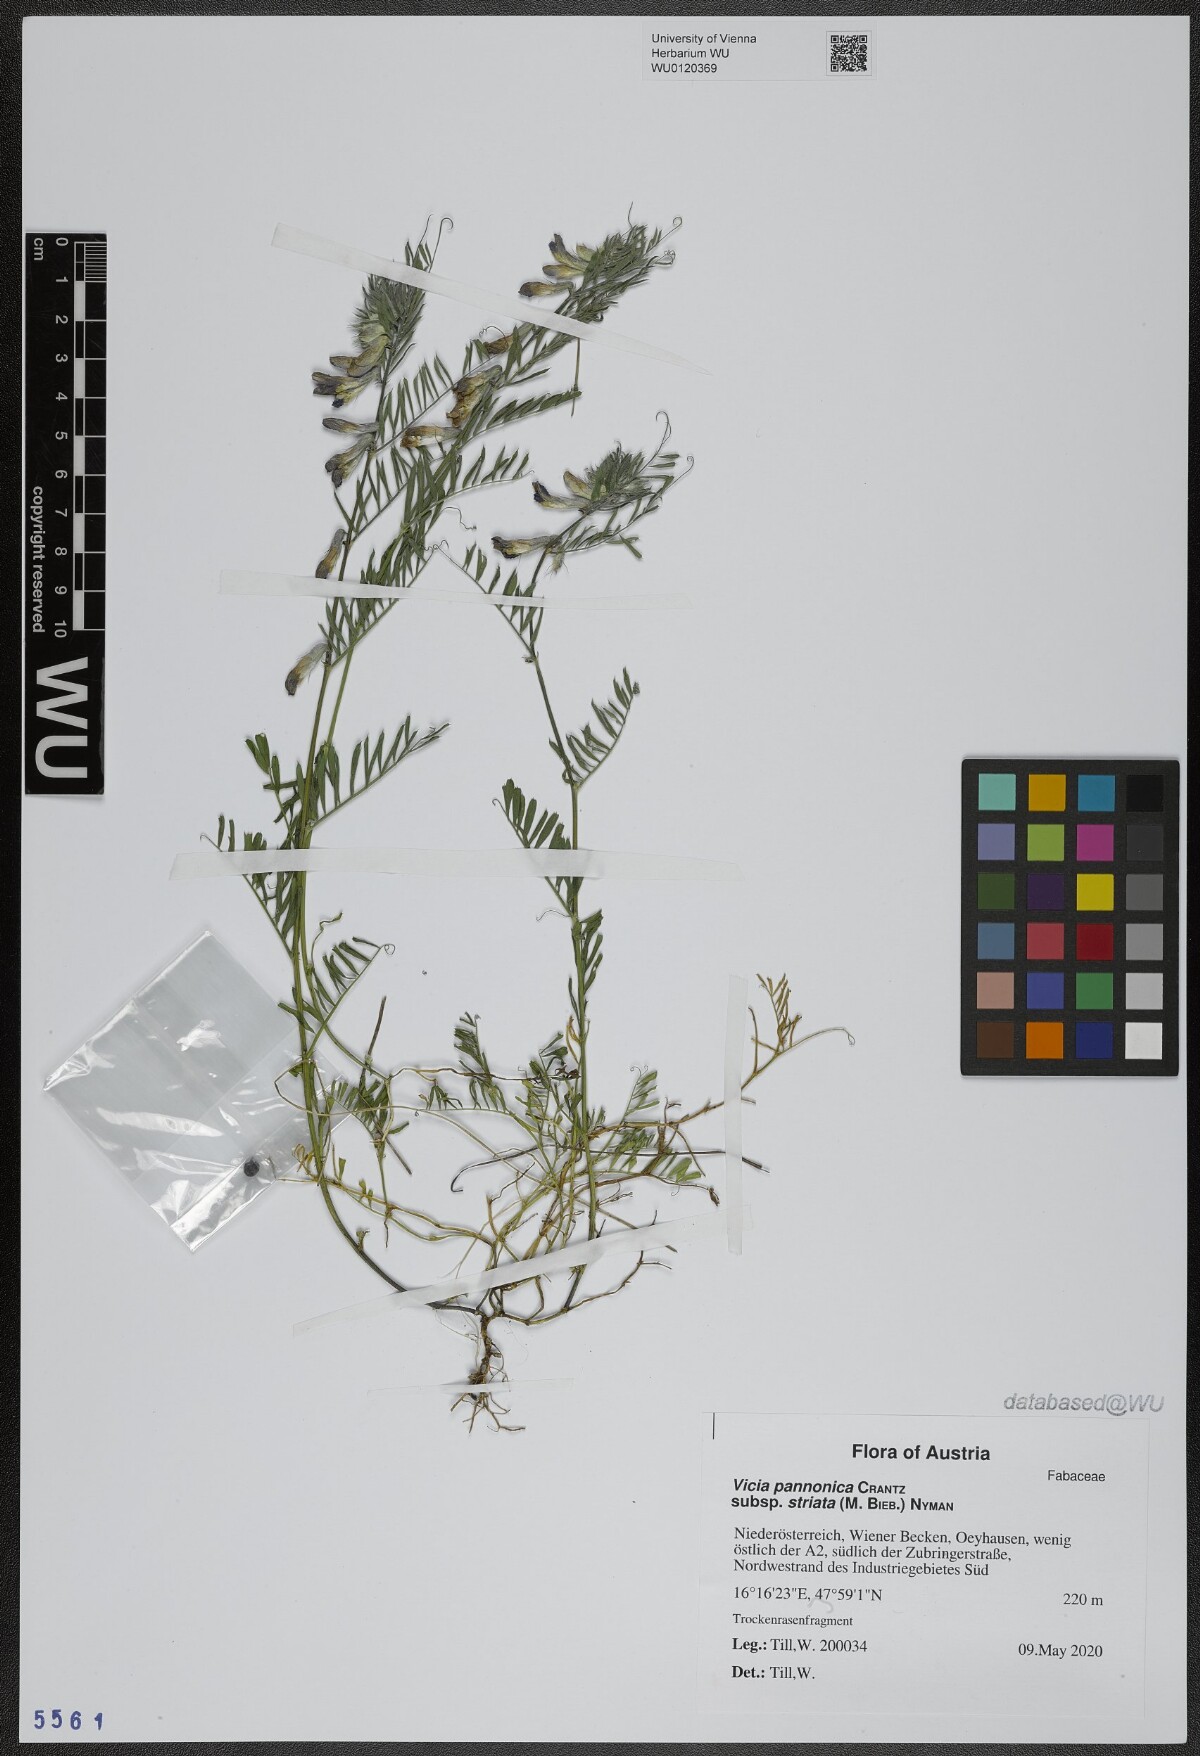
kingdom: Plantae
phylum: Tracheophyta
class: Magnoliopsida
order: Fabales
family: Fabaceae
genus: Vicia
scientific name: Vicia pannonica
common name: Hungarian vetch
